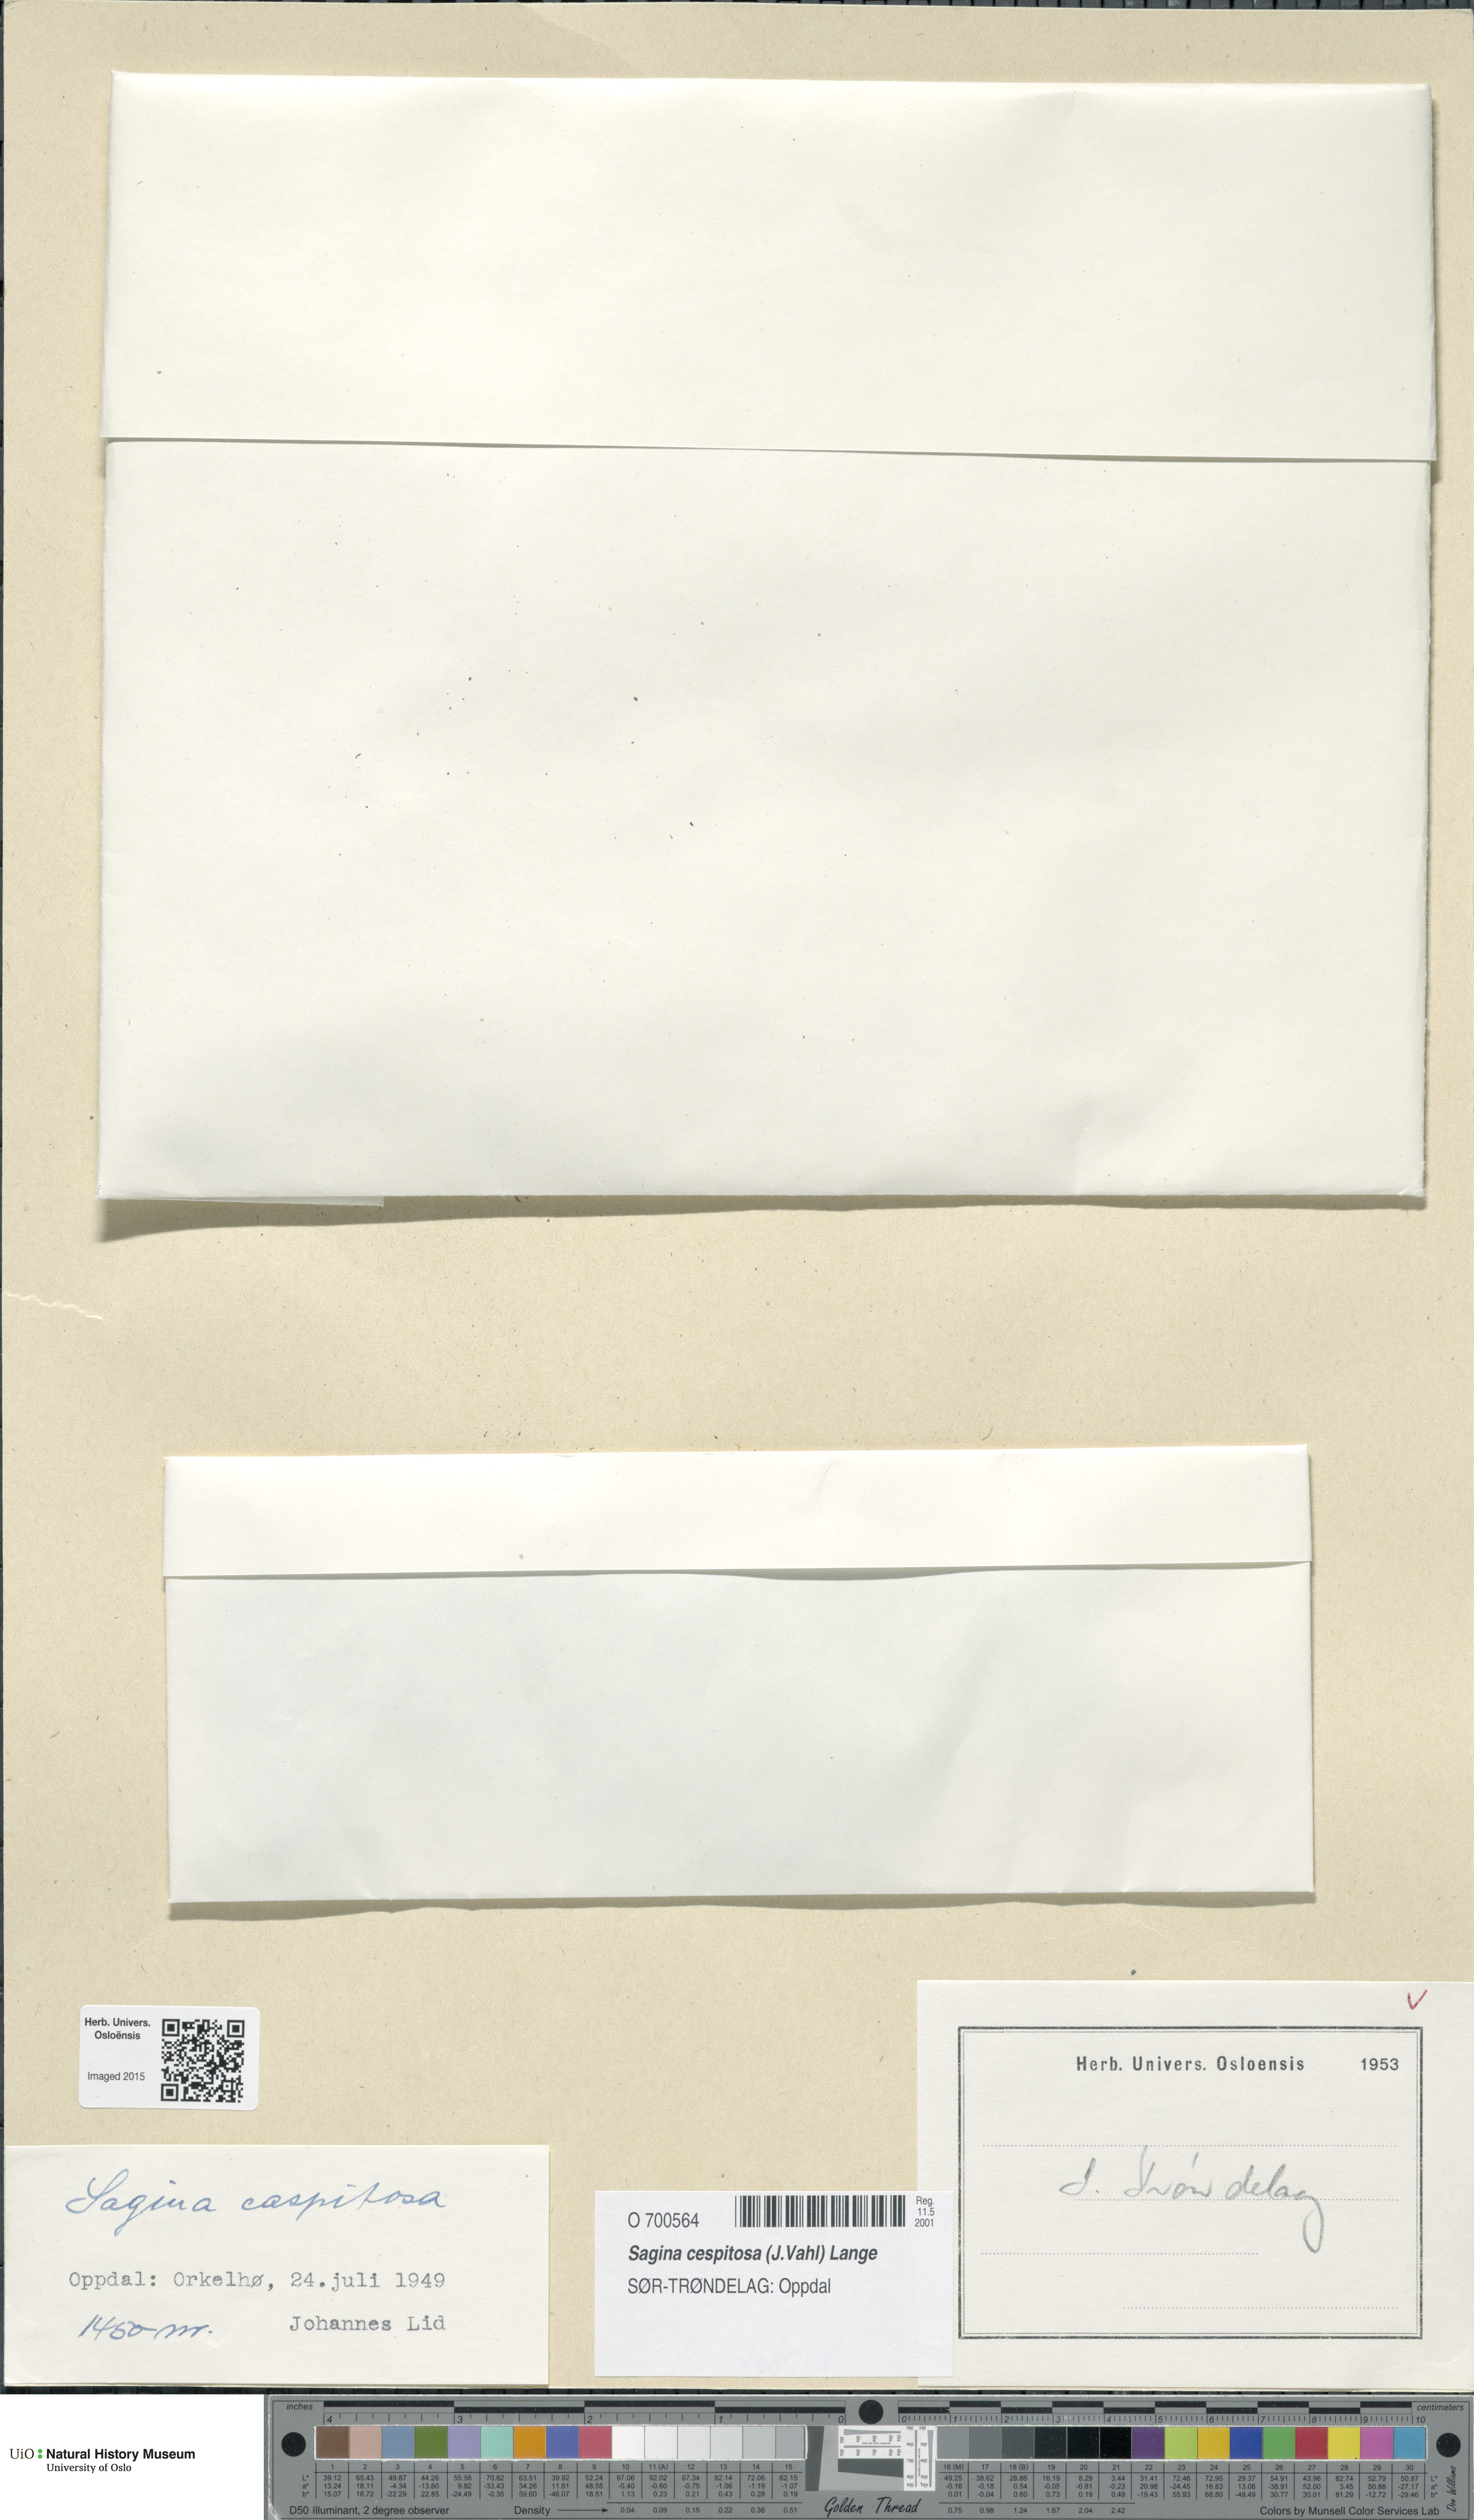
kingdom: Plantae
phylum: Tracheophyta
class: Magnoliopsida
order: Caryophyllales
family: Caryophyllaceae
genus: Sagina
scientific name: Sagina caespitosa
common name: Tufted pearlwort
